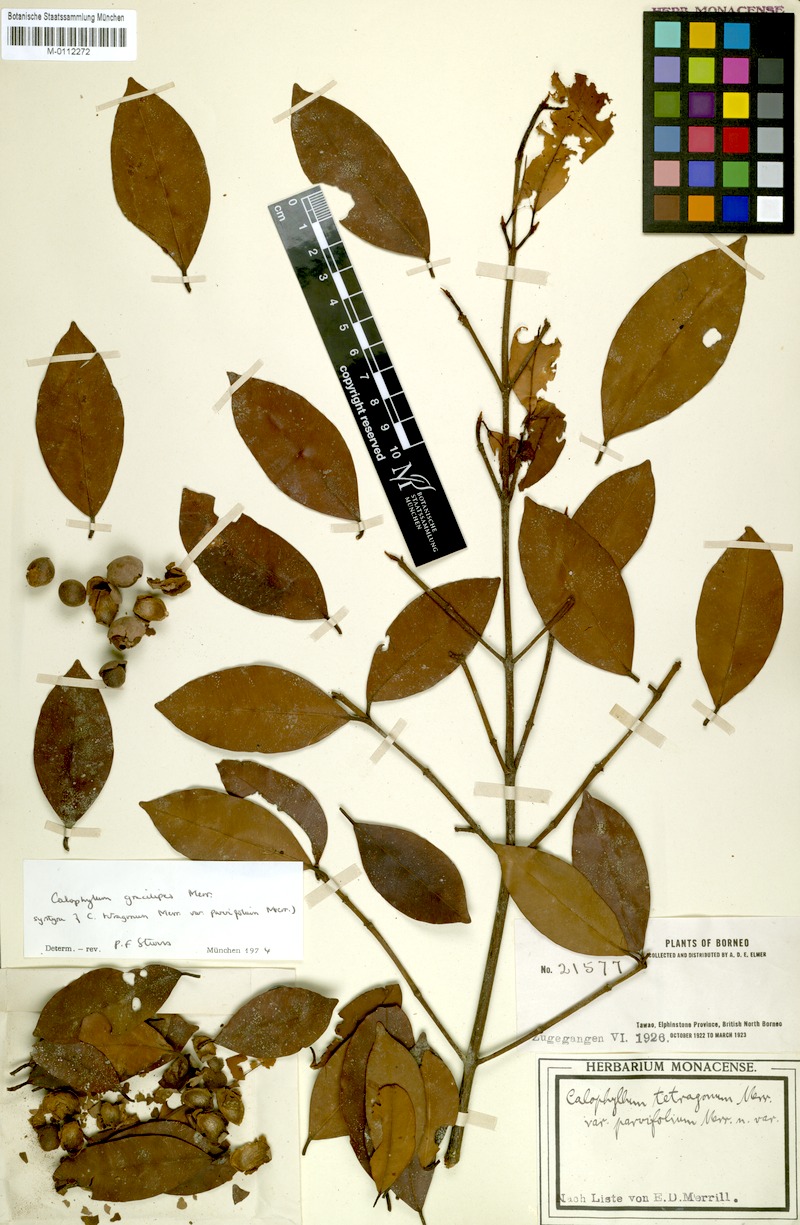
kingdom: Plantae
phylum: Tracheophyta
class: Magnoliopsida
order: Malpighiales
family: Calophyllaceae
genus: Calophyllum
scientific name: Calophyllum gracilipes
